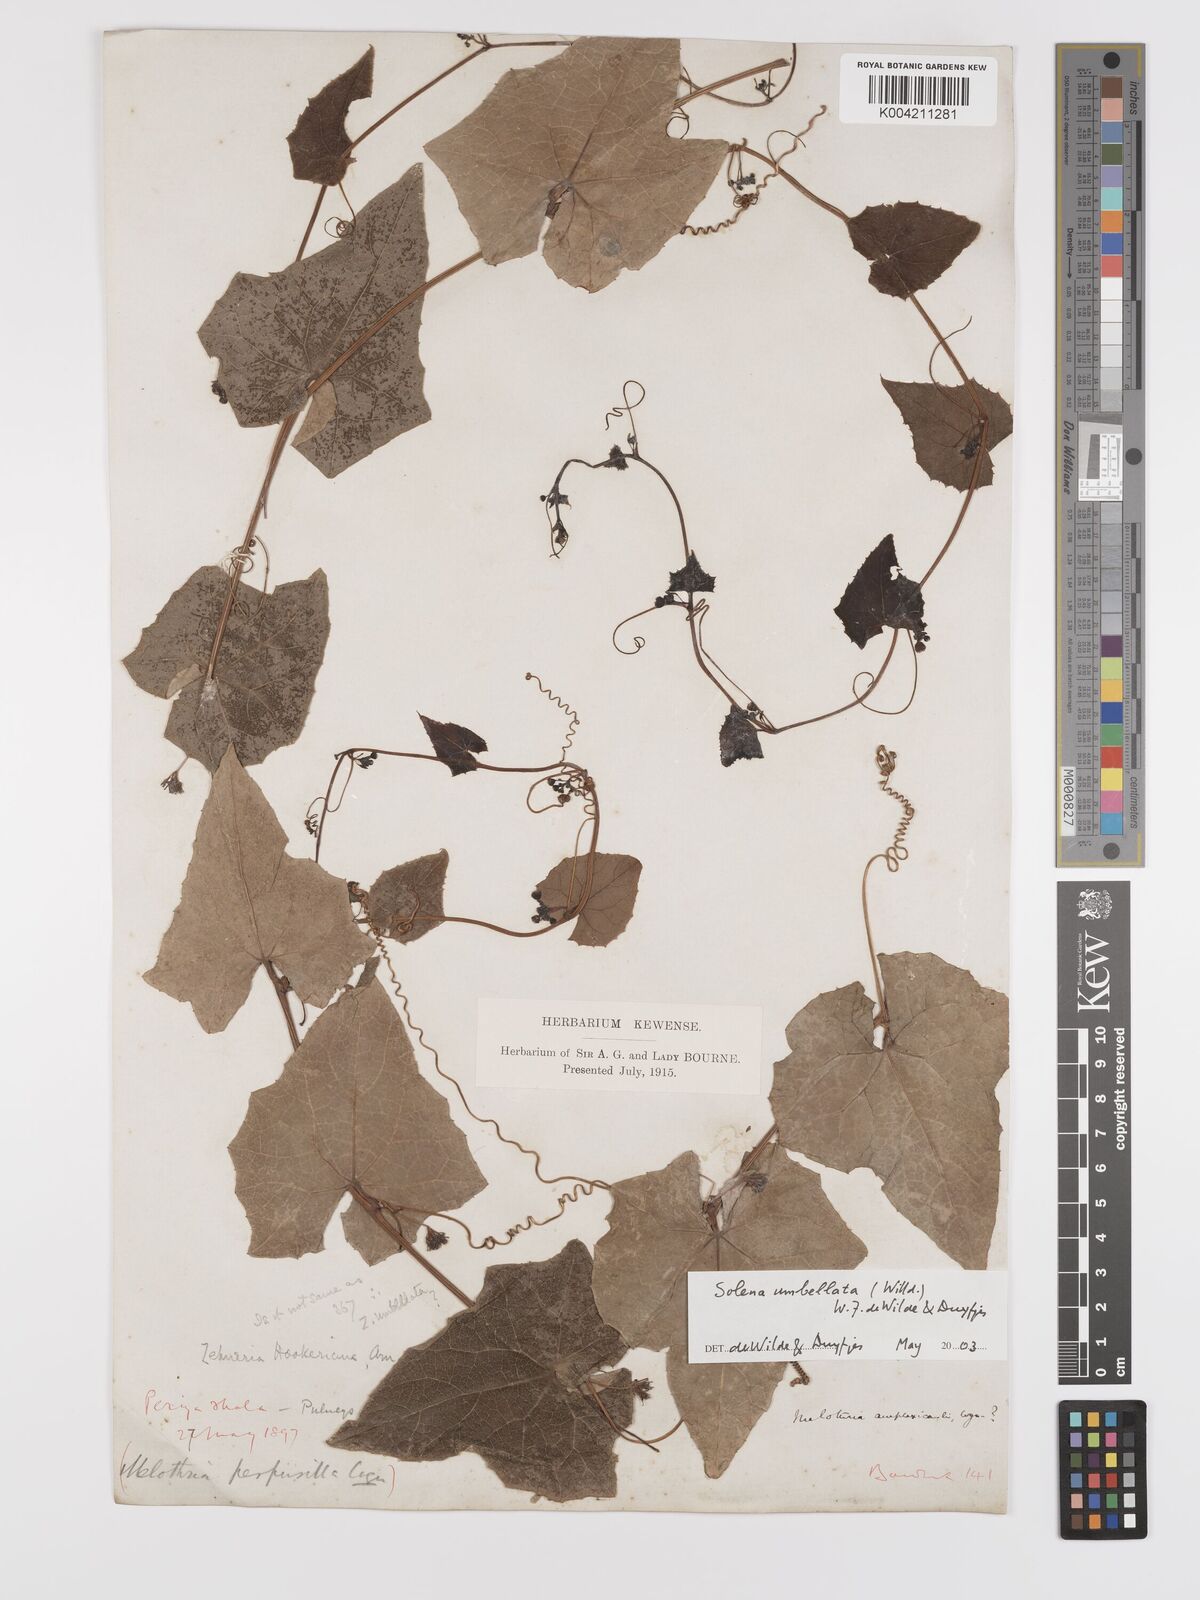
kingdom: Plantae
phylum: Tracheophyta
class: Magnoliopsida
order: Cucurbitales
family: Cucurbitaceae
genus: Solena
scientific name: Solena amplexicaulis
